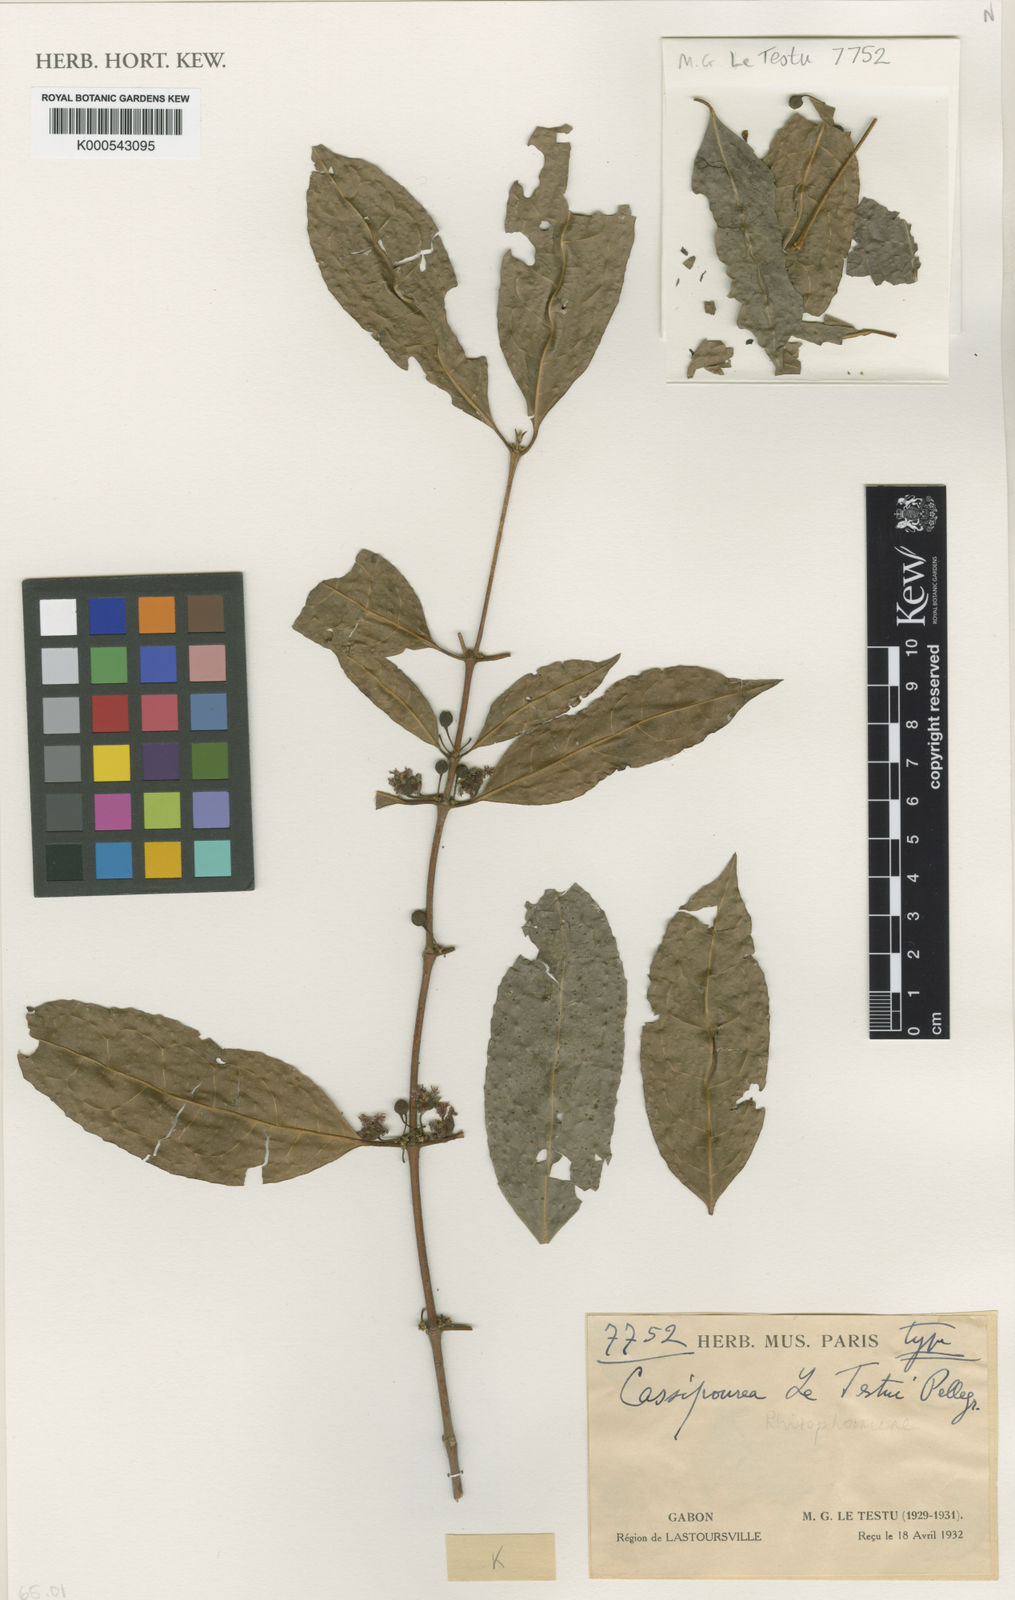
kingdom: Plantae
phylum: Tracheophyta
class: Magnoliopsida
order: Malpighiales
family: Rhizophoraceae
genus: Cassipourea
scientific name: Cassipourea letestui
